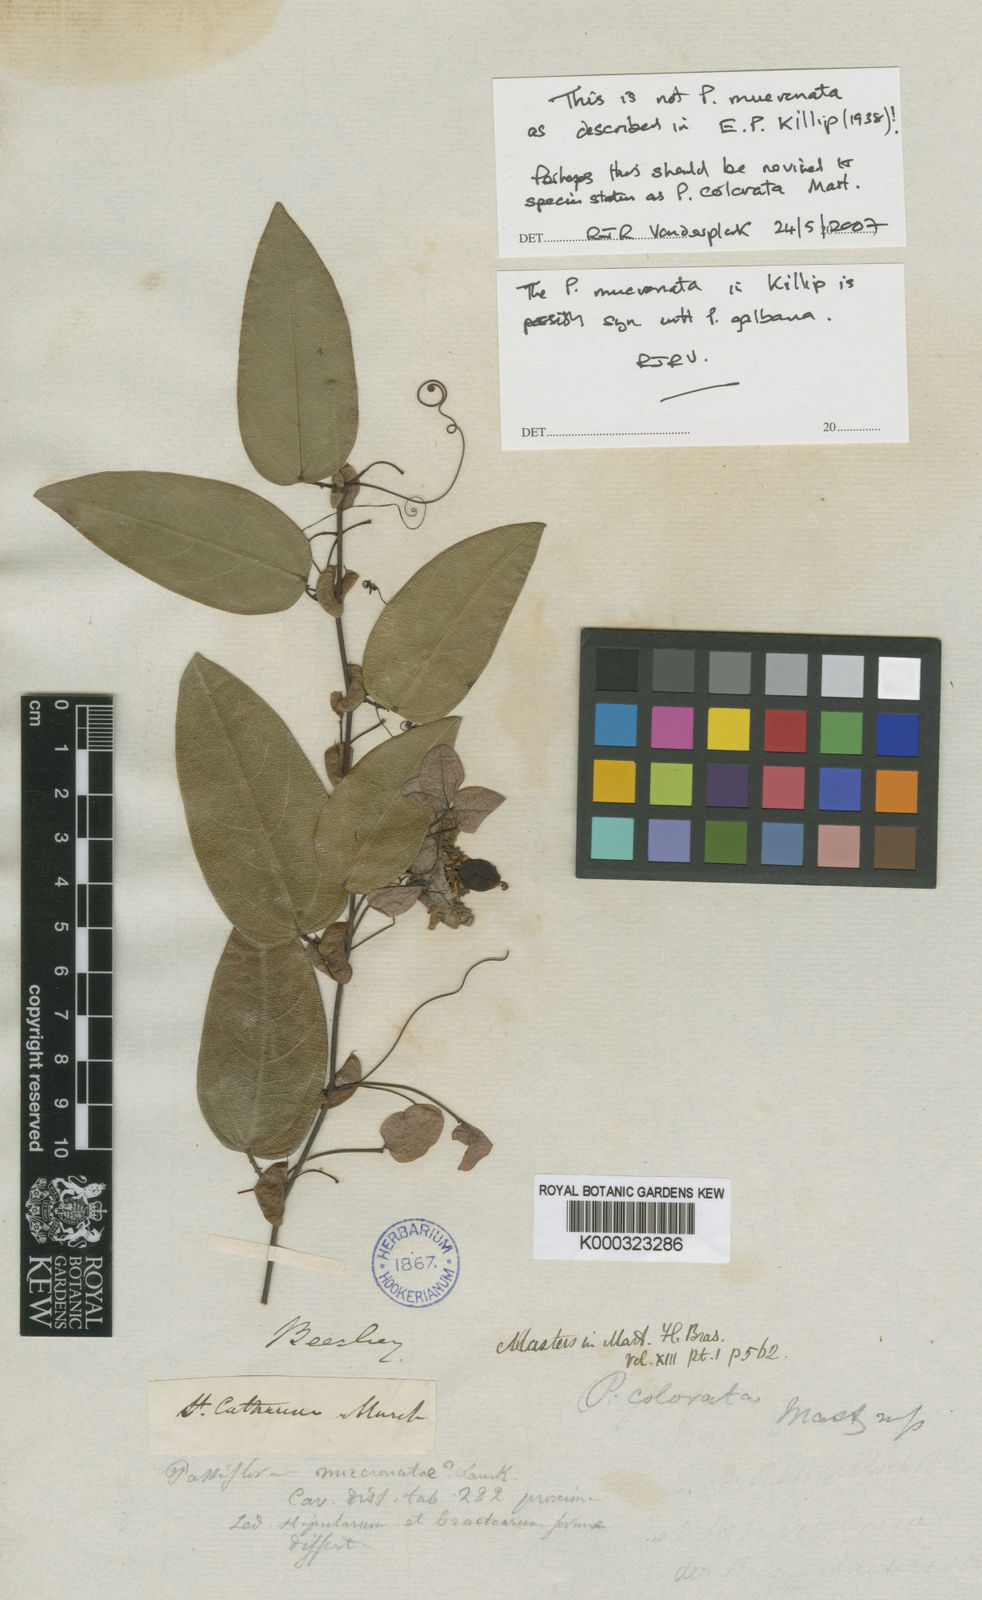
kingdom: Plantae
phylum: Tracheophyta
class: Magnoliopsida
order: Malpighiales
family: Passifloraceae
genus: Passiflora
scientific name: Passiflora mediterranea
